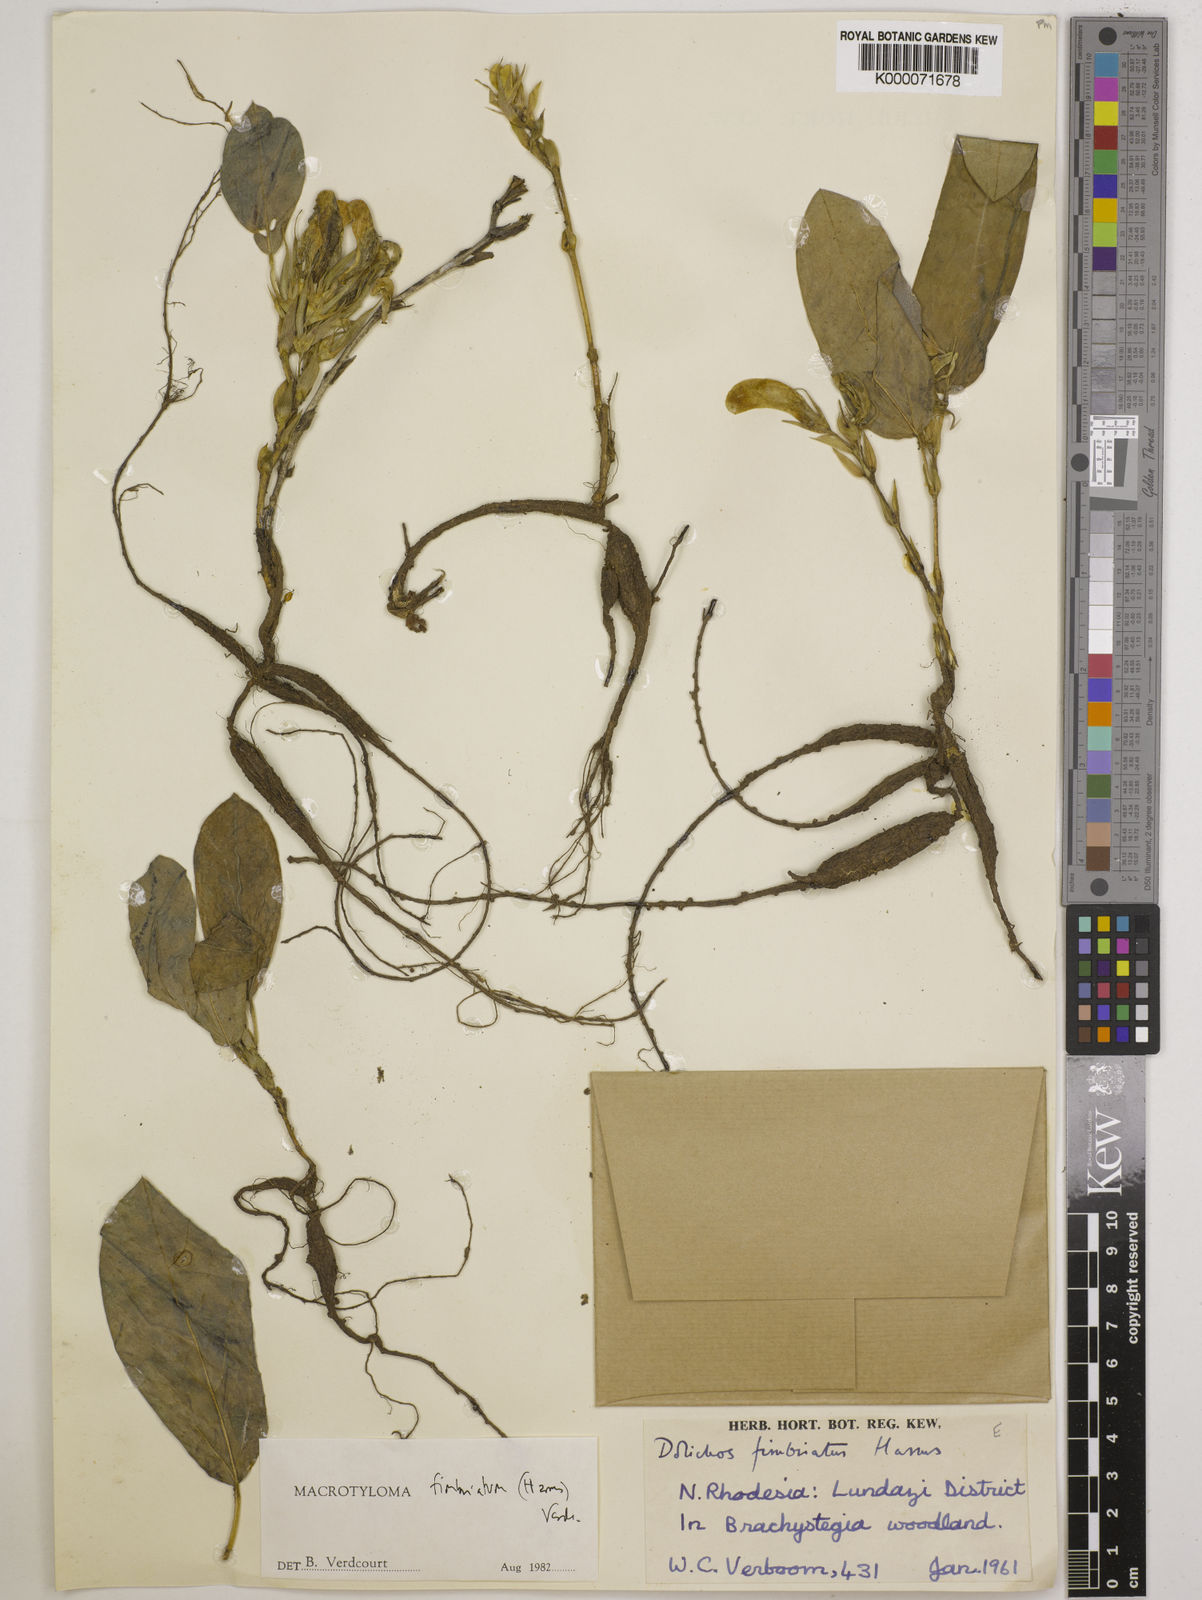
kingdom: Plantae
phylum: Tracheophyta
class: Magnoliopsida
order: Fabales
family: Fabaceae
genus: Macrotyloma
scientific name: Macrotyloma fimbriatum
